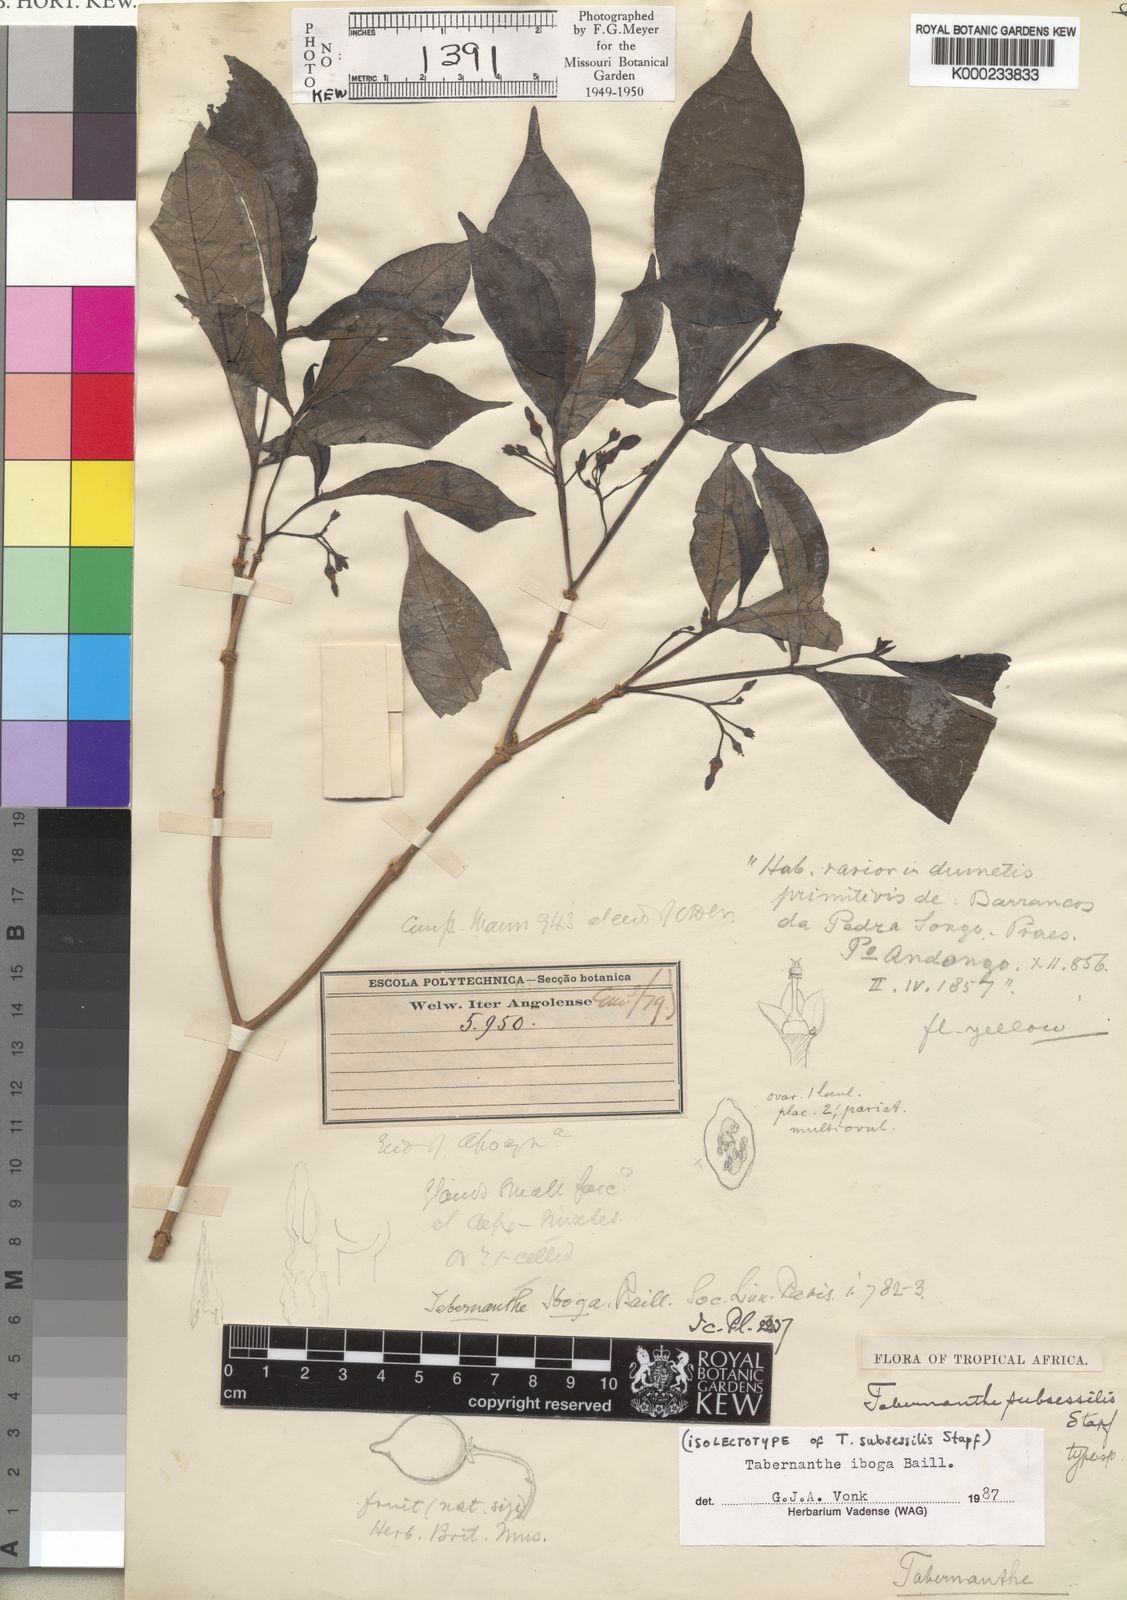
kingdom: Plantae
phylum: Tracheophyta
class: Magnoliopsida
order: Gentianales
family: Apocynaceae
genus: Tabernanthe
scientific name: Tabernanthe iboga
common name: Bitter-grass
